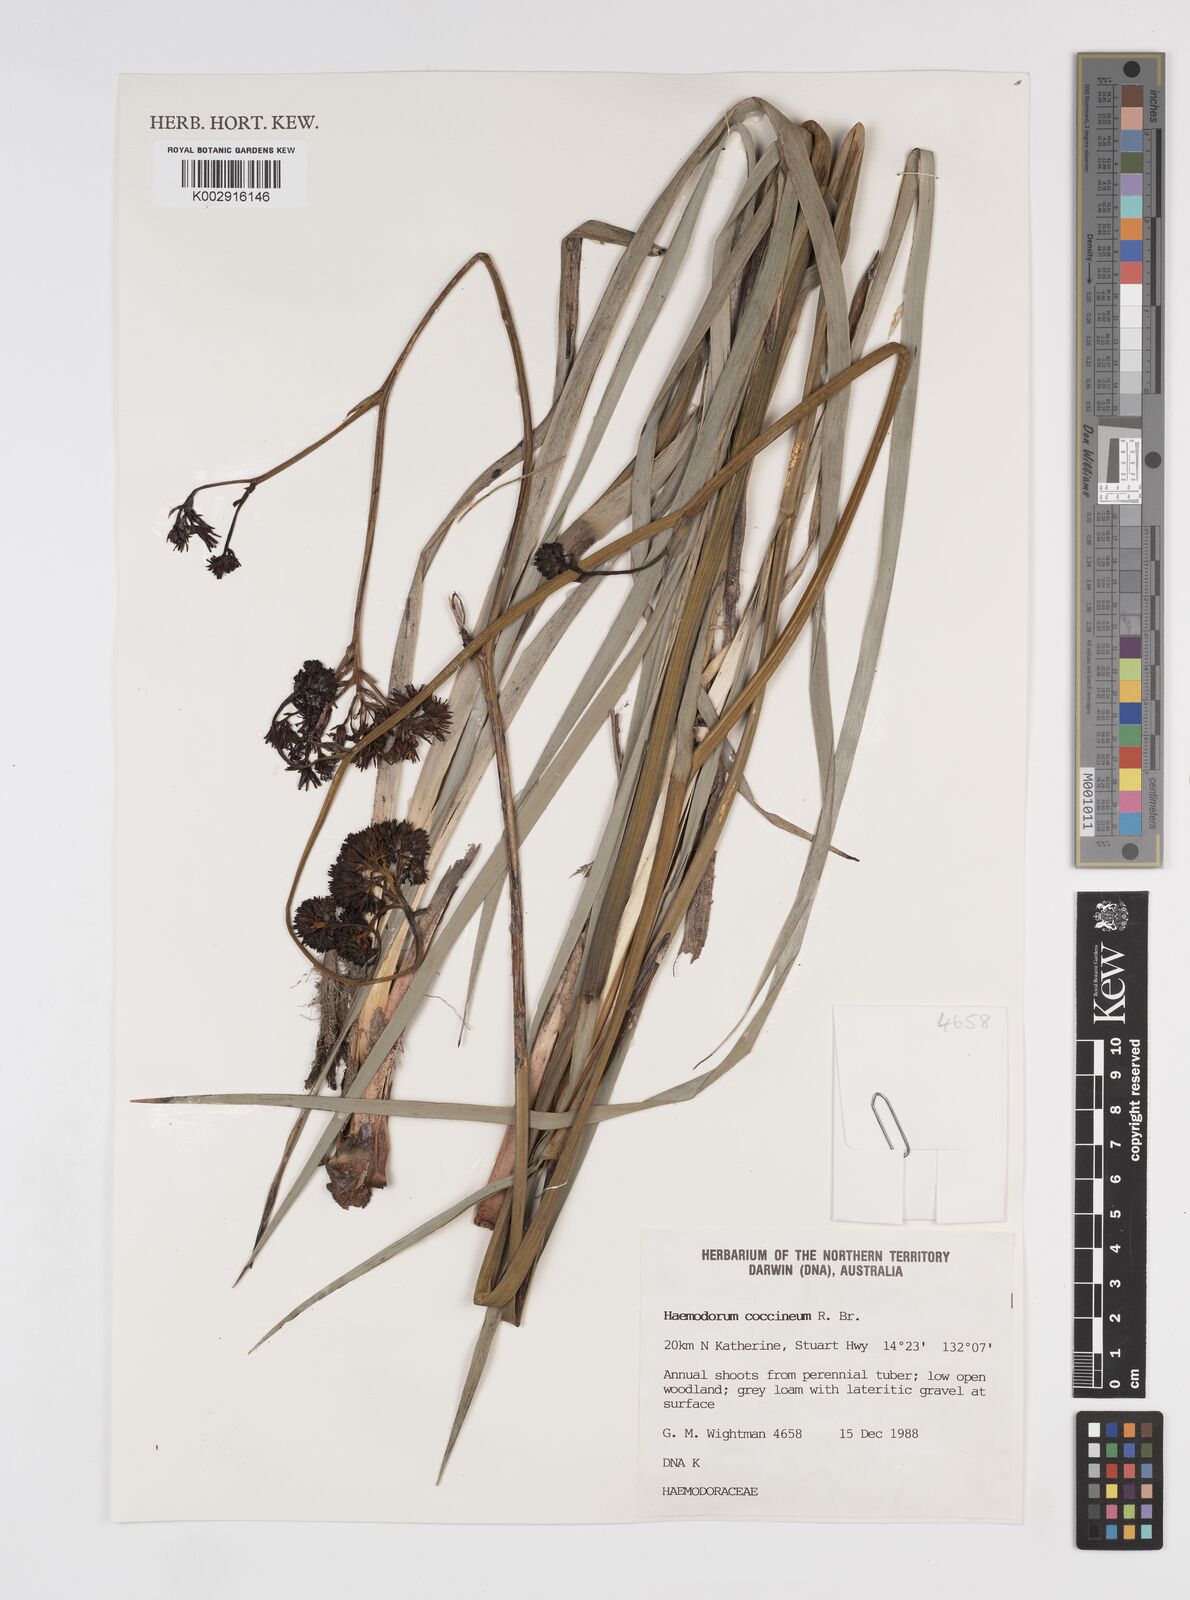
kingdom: Plantae
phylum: Tracheophyta
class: Liliopsida
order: Commelinales
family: Haemodoraceae
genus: Haemodorum
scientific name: Haemodorum coccineum
